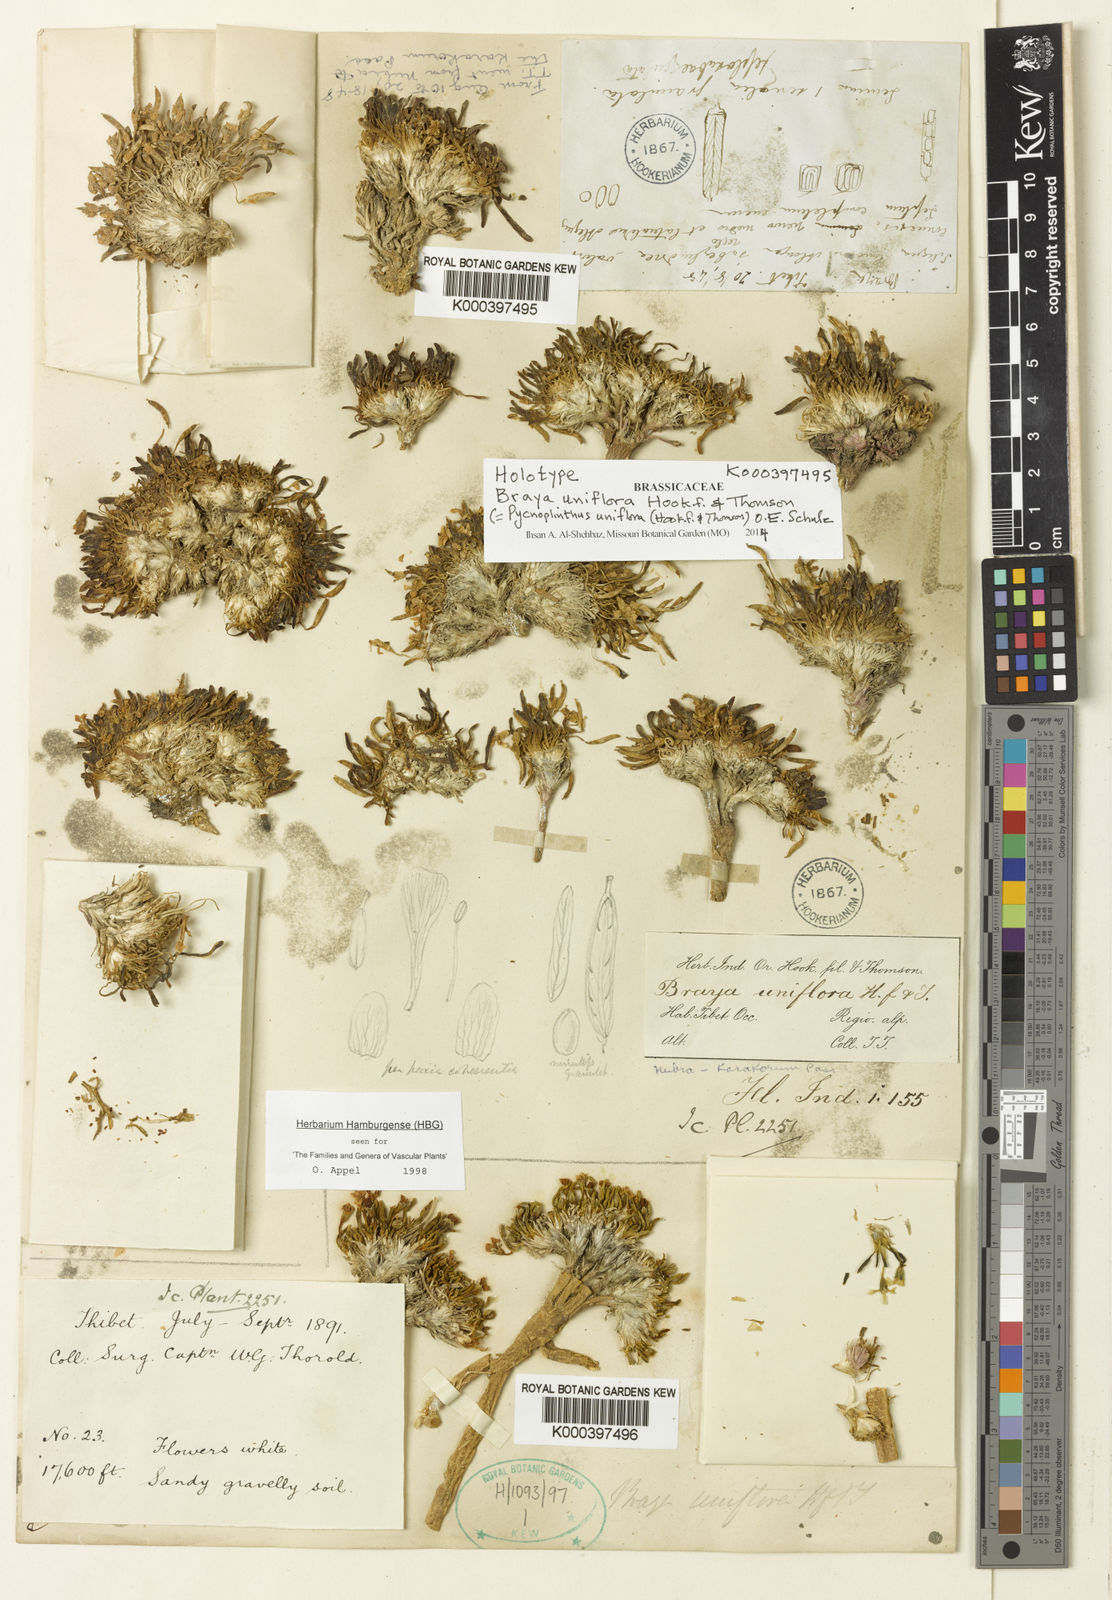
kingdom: Plantae
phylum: Tracheophyta
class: Magnoliopsida
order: Brassicales
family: Brassicaceae
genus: Pycnoplinthus
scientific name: Pycnoplinthus uniflora
